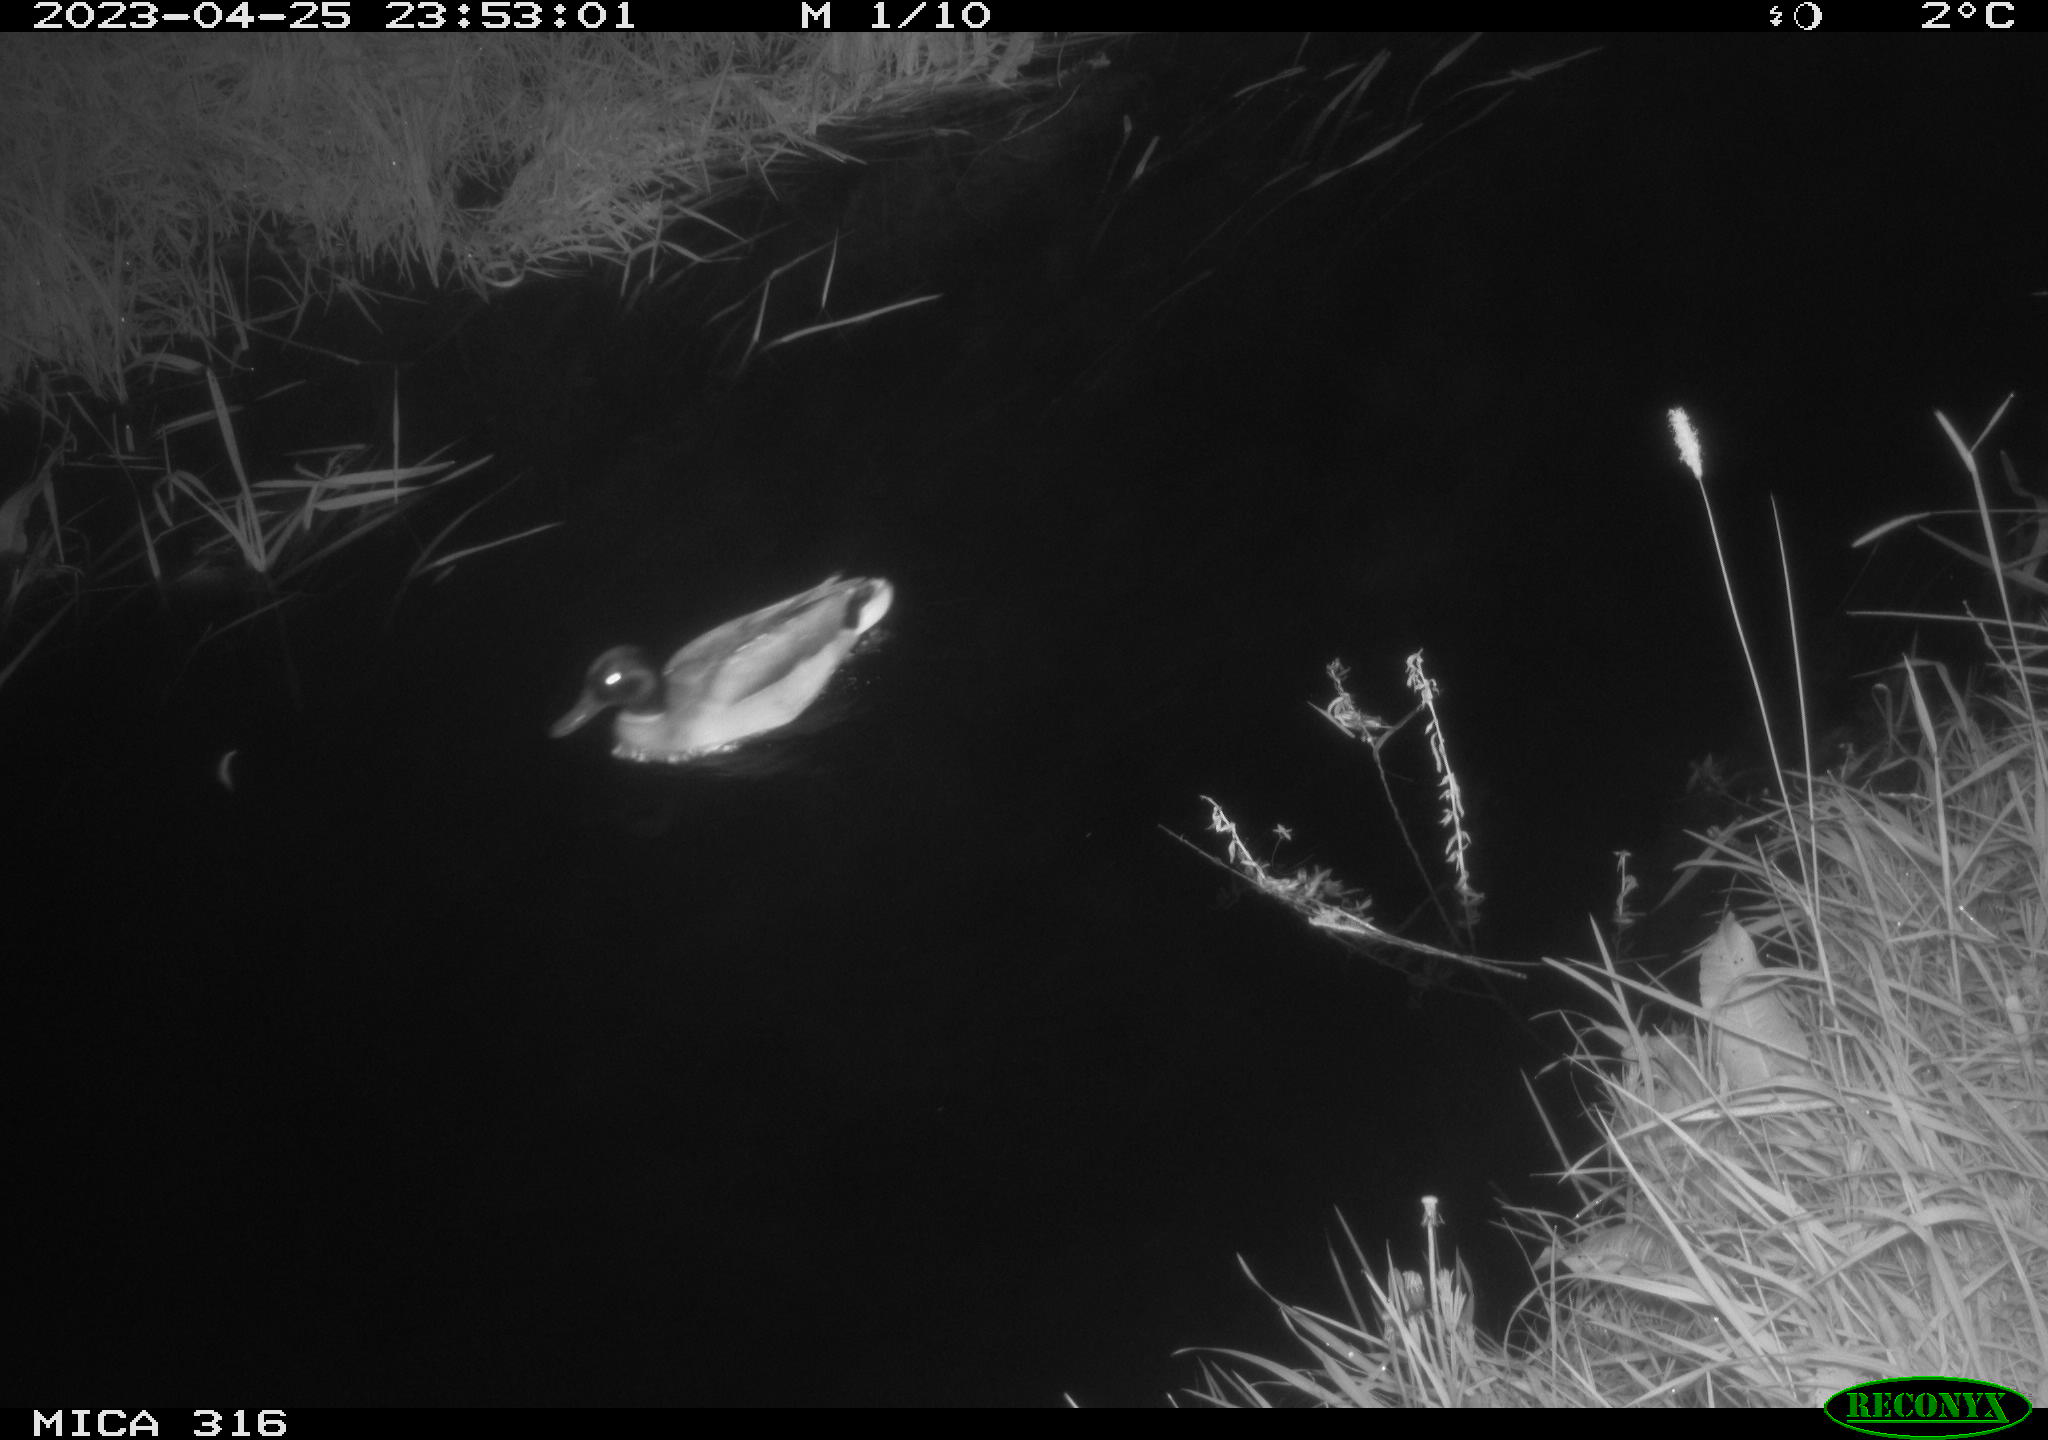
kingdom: Animalia
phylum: Chordata
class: Aves
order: Anseriformes
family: Anatidae
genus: Anas
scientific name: Anas
